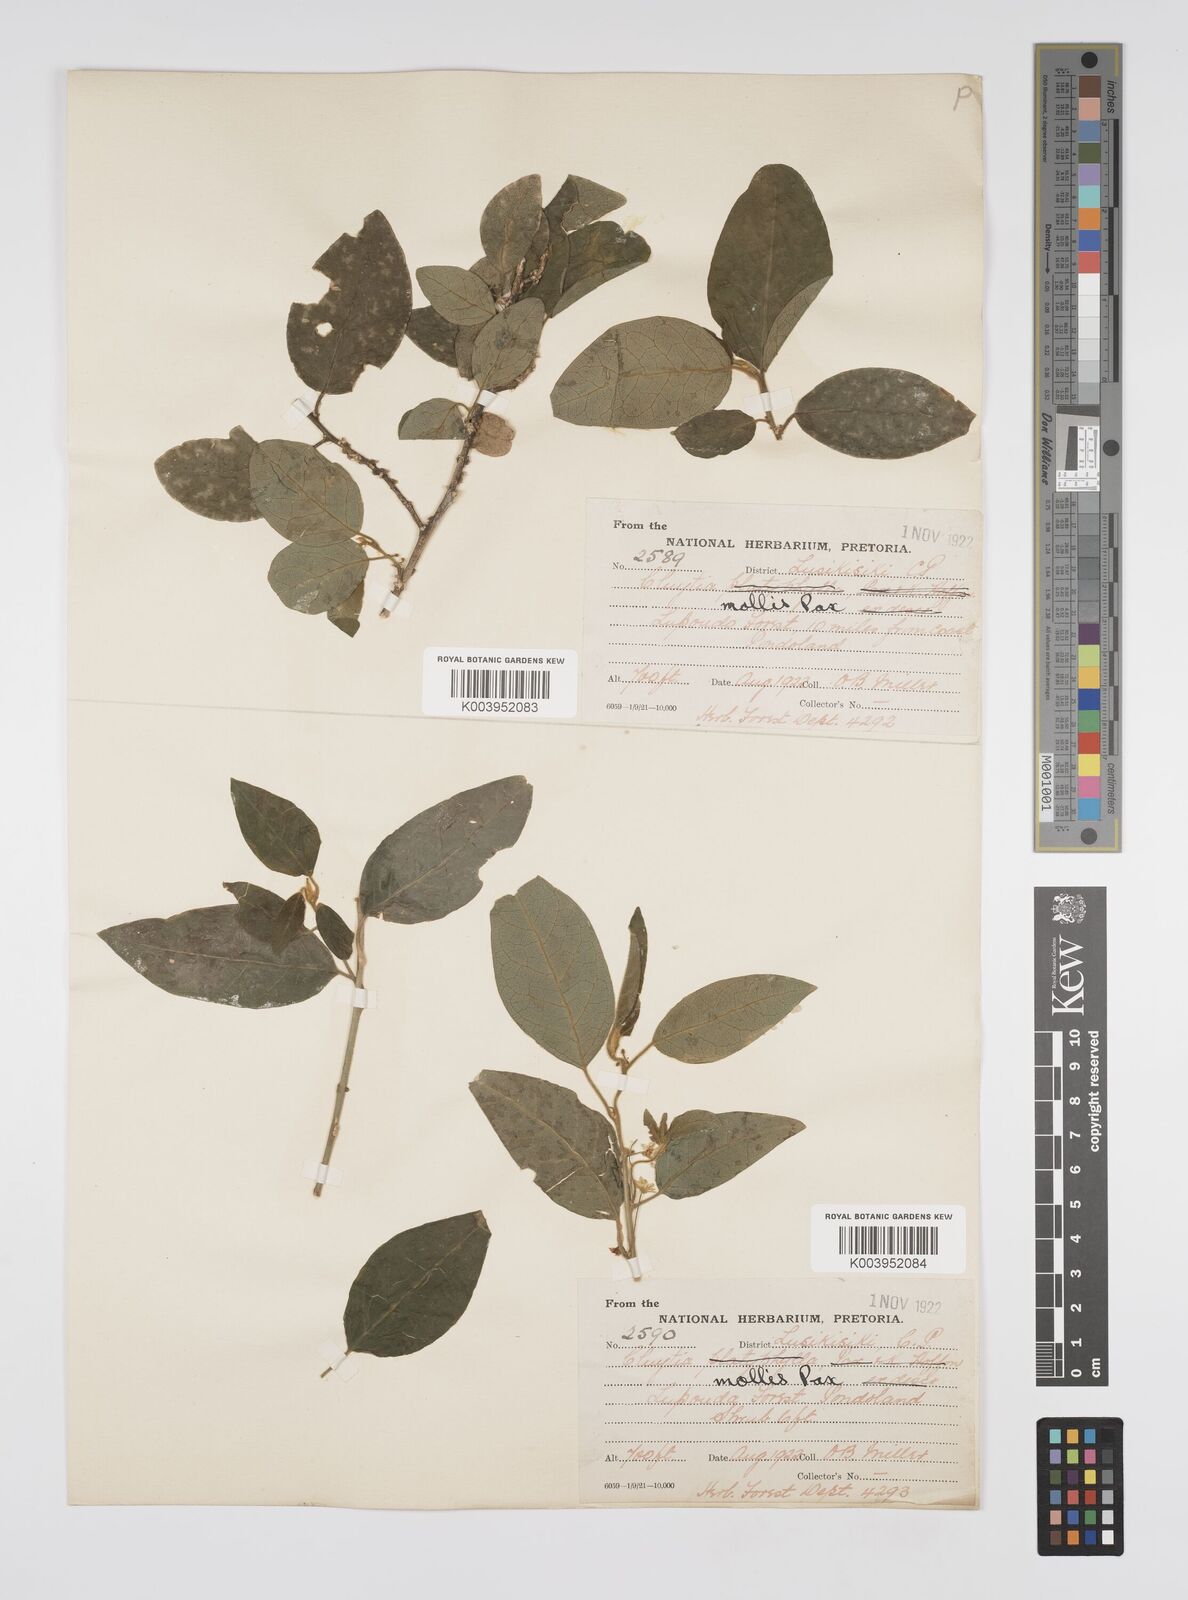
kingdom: Plantae
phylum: Tracheophyta
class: Magnoliopsida
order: Malpighiales
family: Peraceae
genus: Clutia
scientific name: Clutia abyssinica
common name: Large lightning bush
